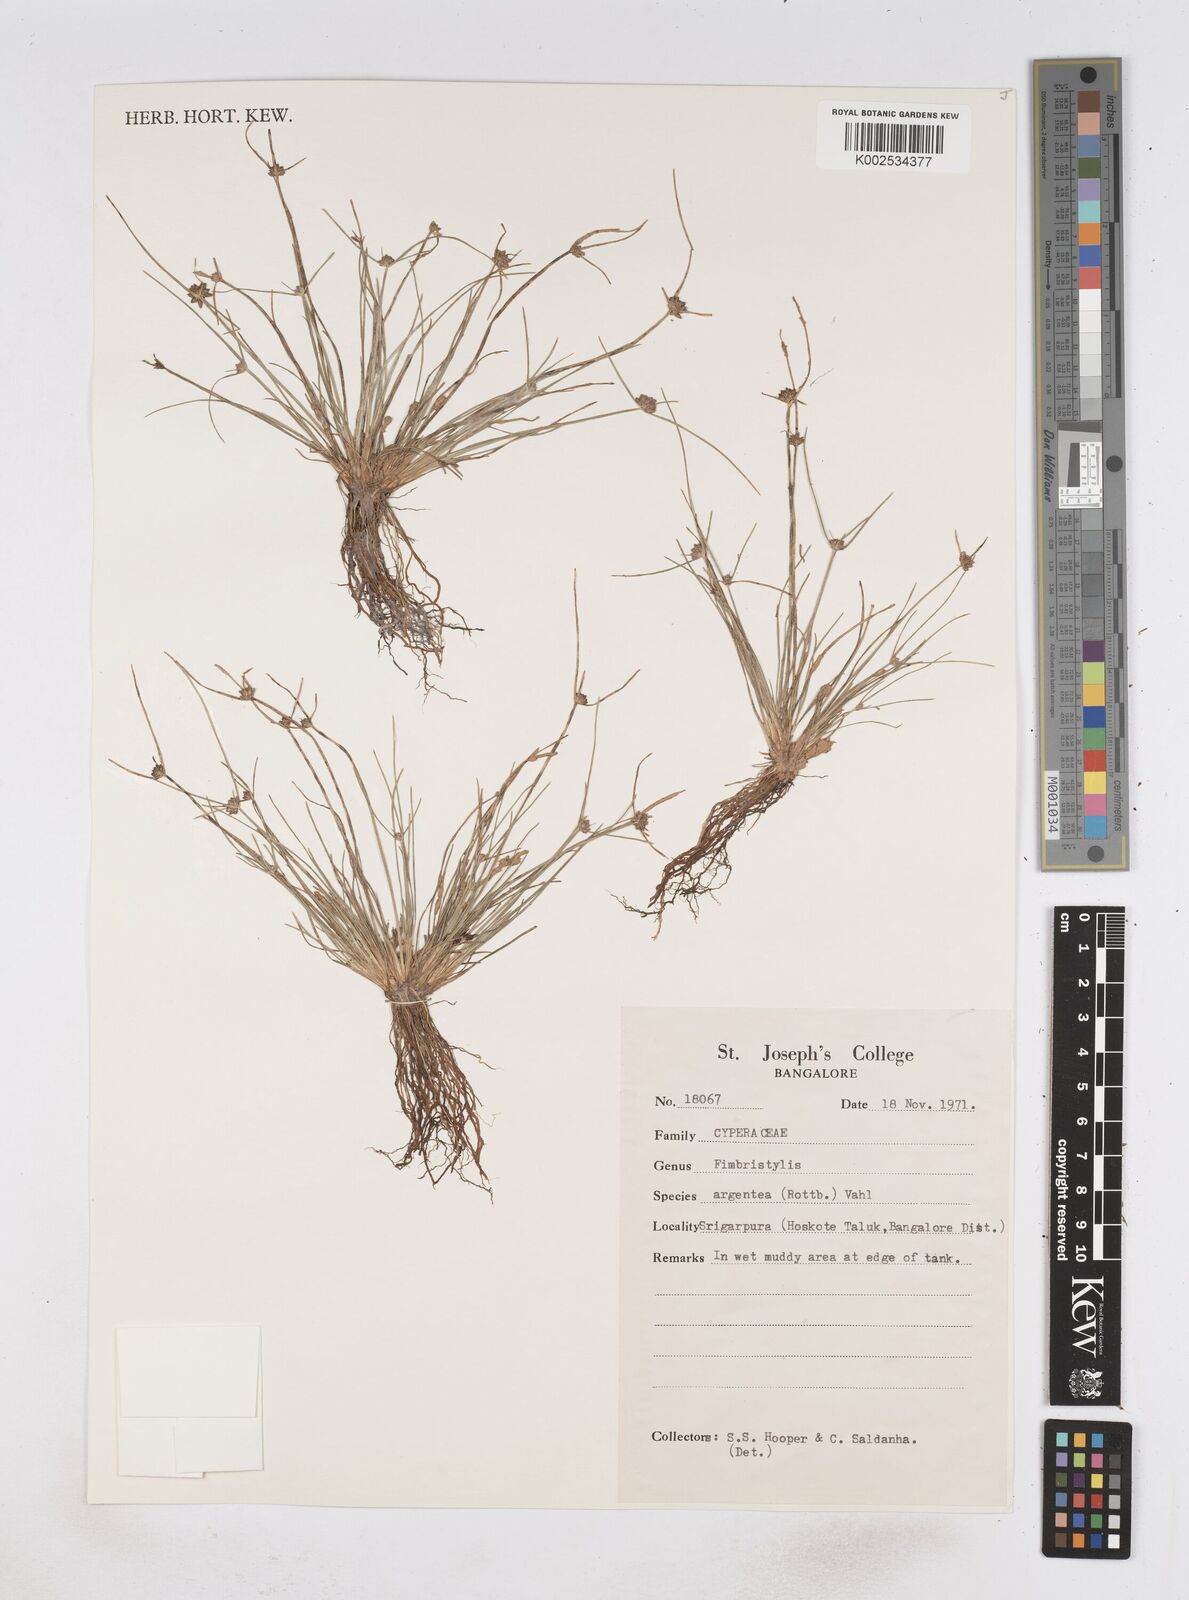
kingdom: Plantae
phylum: Tracheophyta
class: Liliopsida
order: Poales
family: Cyperaceae
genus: Fimbristylis
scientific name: Fimbristylis argentea
